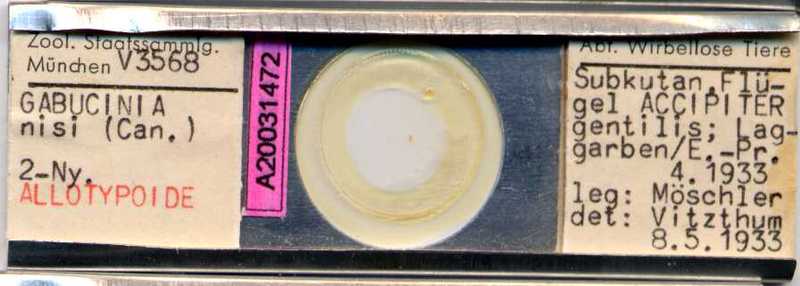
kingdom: Animalia
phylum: Arthropoda
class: Arachnida
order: Sarcoptiformes
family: Gabuciniidae
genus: Gabucinia
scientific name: Gabucinia nisi
